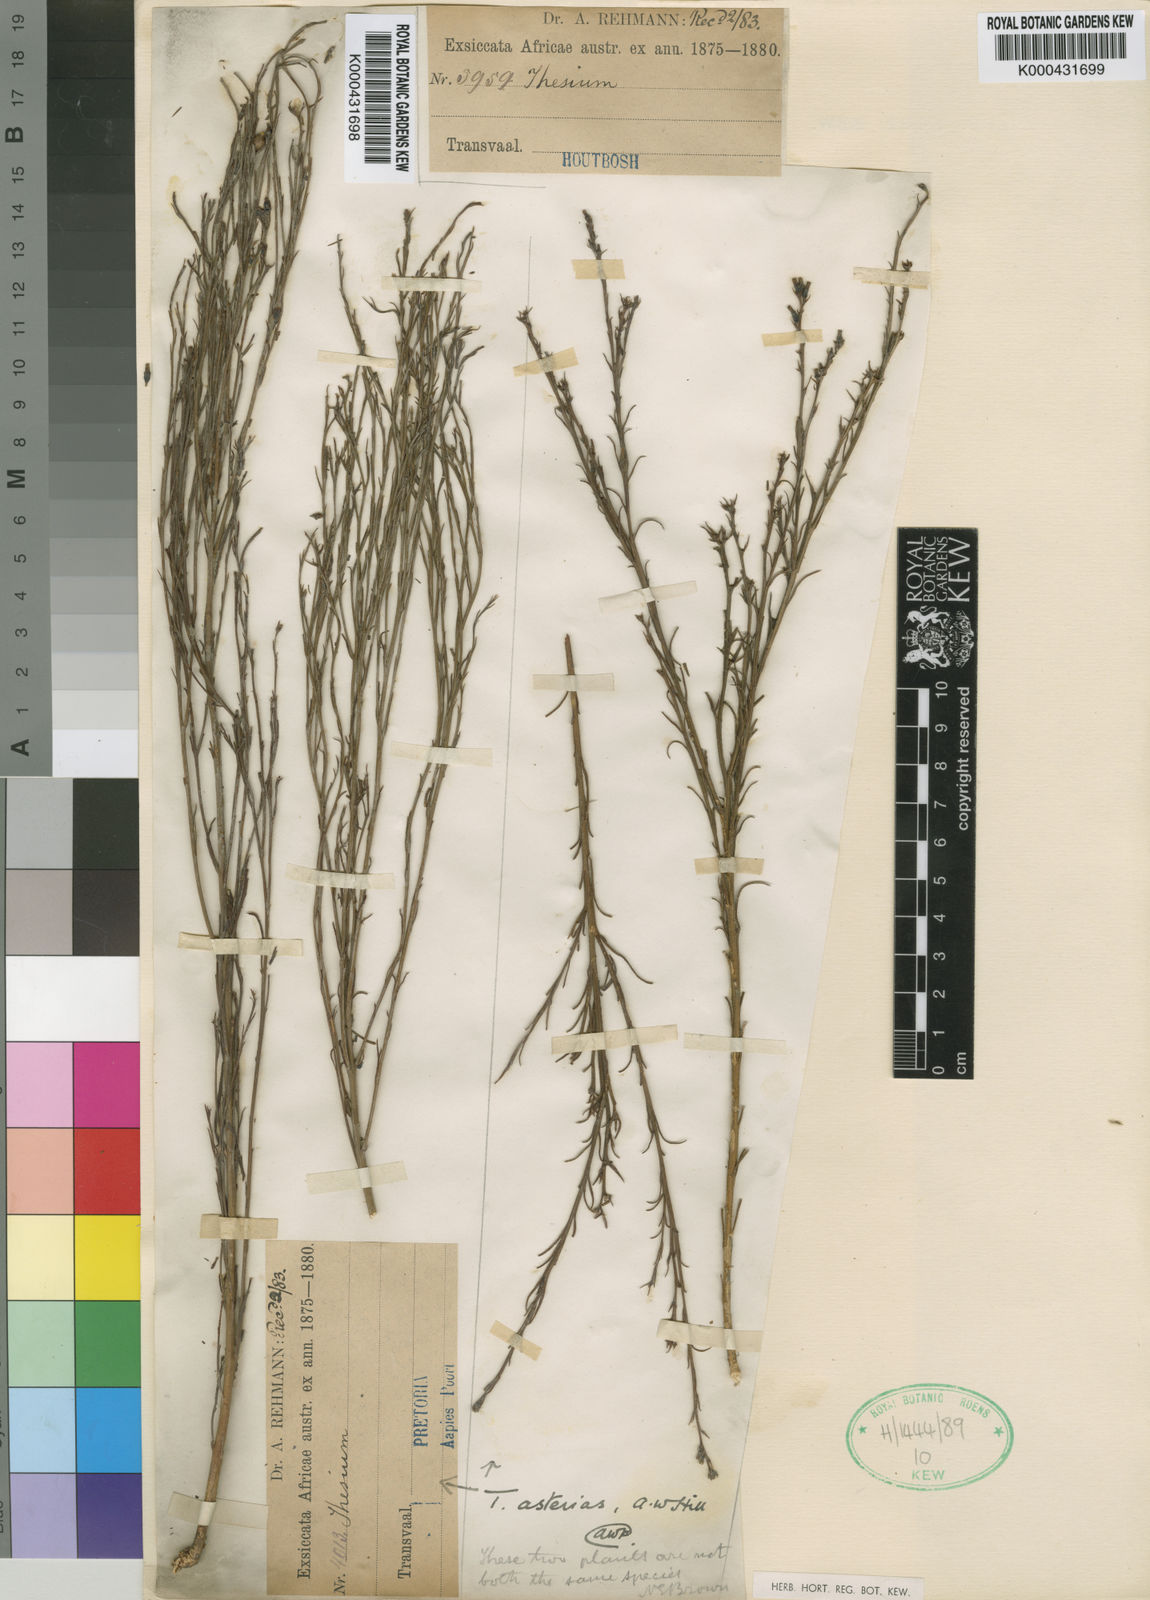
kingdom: Plantae
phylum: Tracheophyta
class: Magnoliopsida
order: Santalales
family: Thesiaceae
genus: Thesium
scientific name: Thesium asterias
